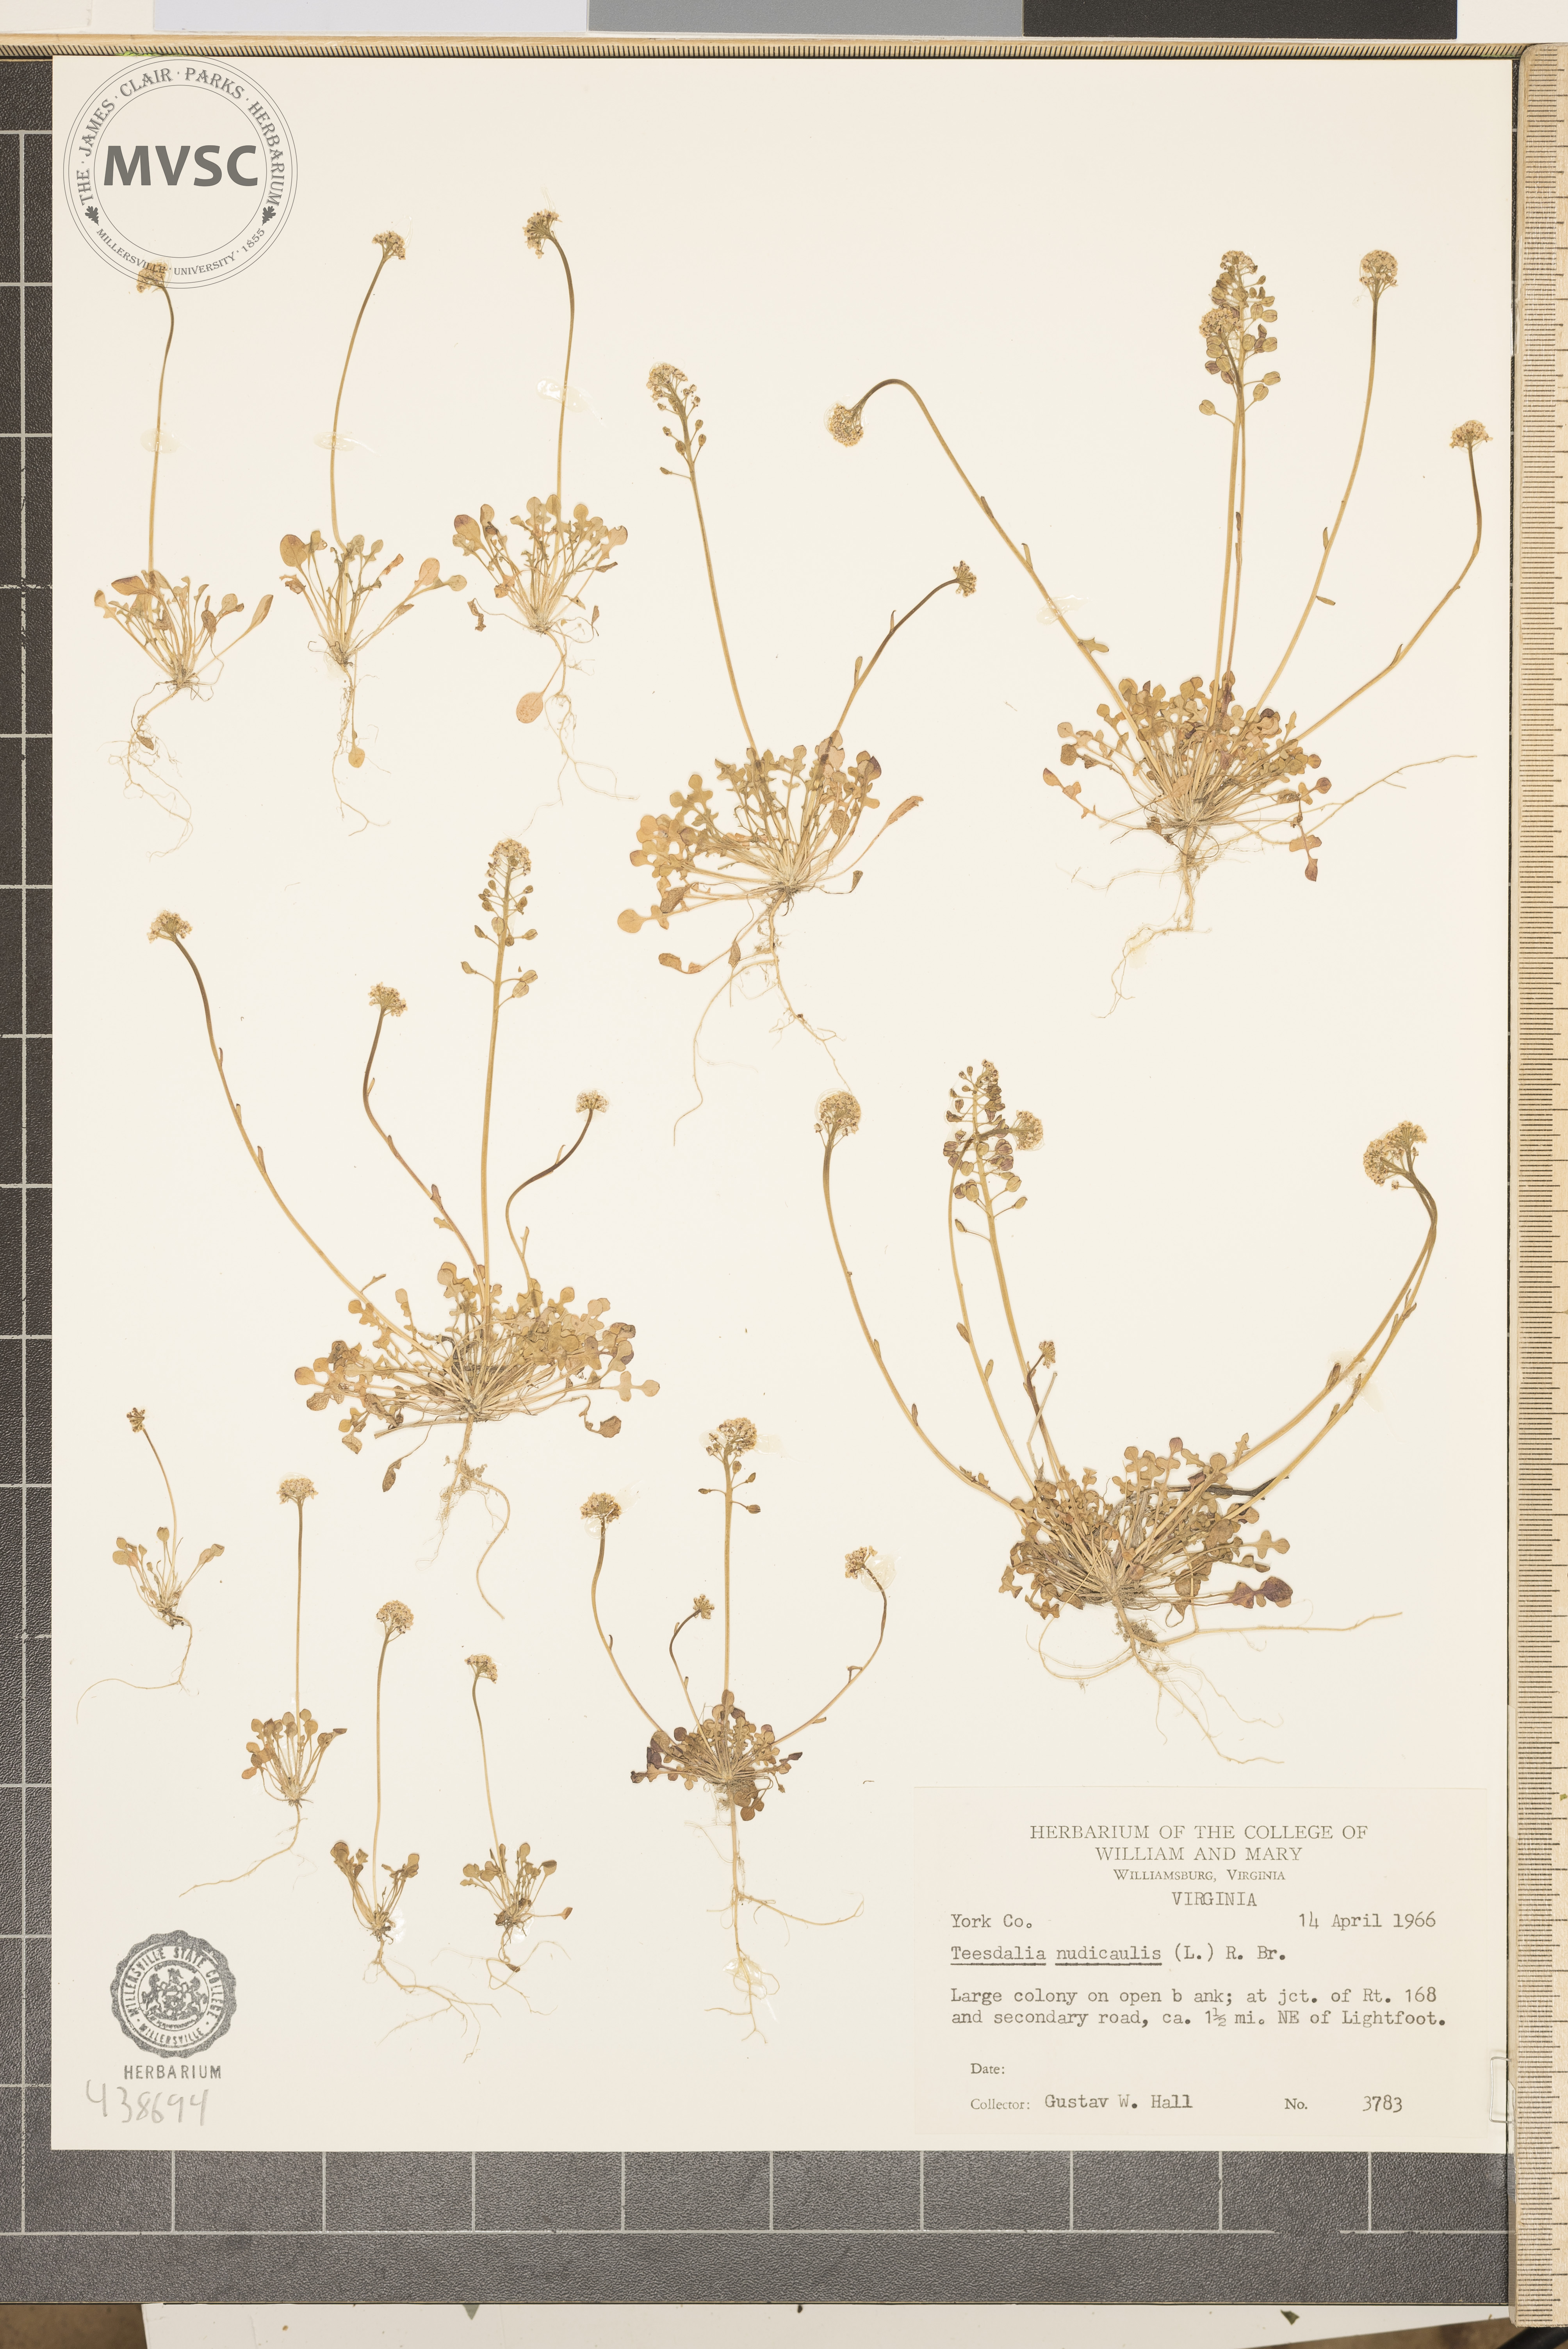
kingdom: Plantae
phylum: Tracheophyta
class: Magnoliopsida
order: Brassicales
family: Brassicaceae
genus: Teesdalia
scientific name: Teesdalia nudicaulis
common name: Shepherd's cress
